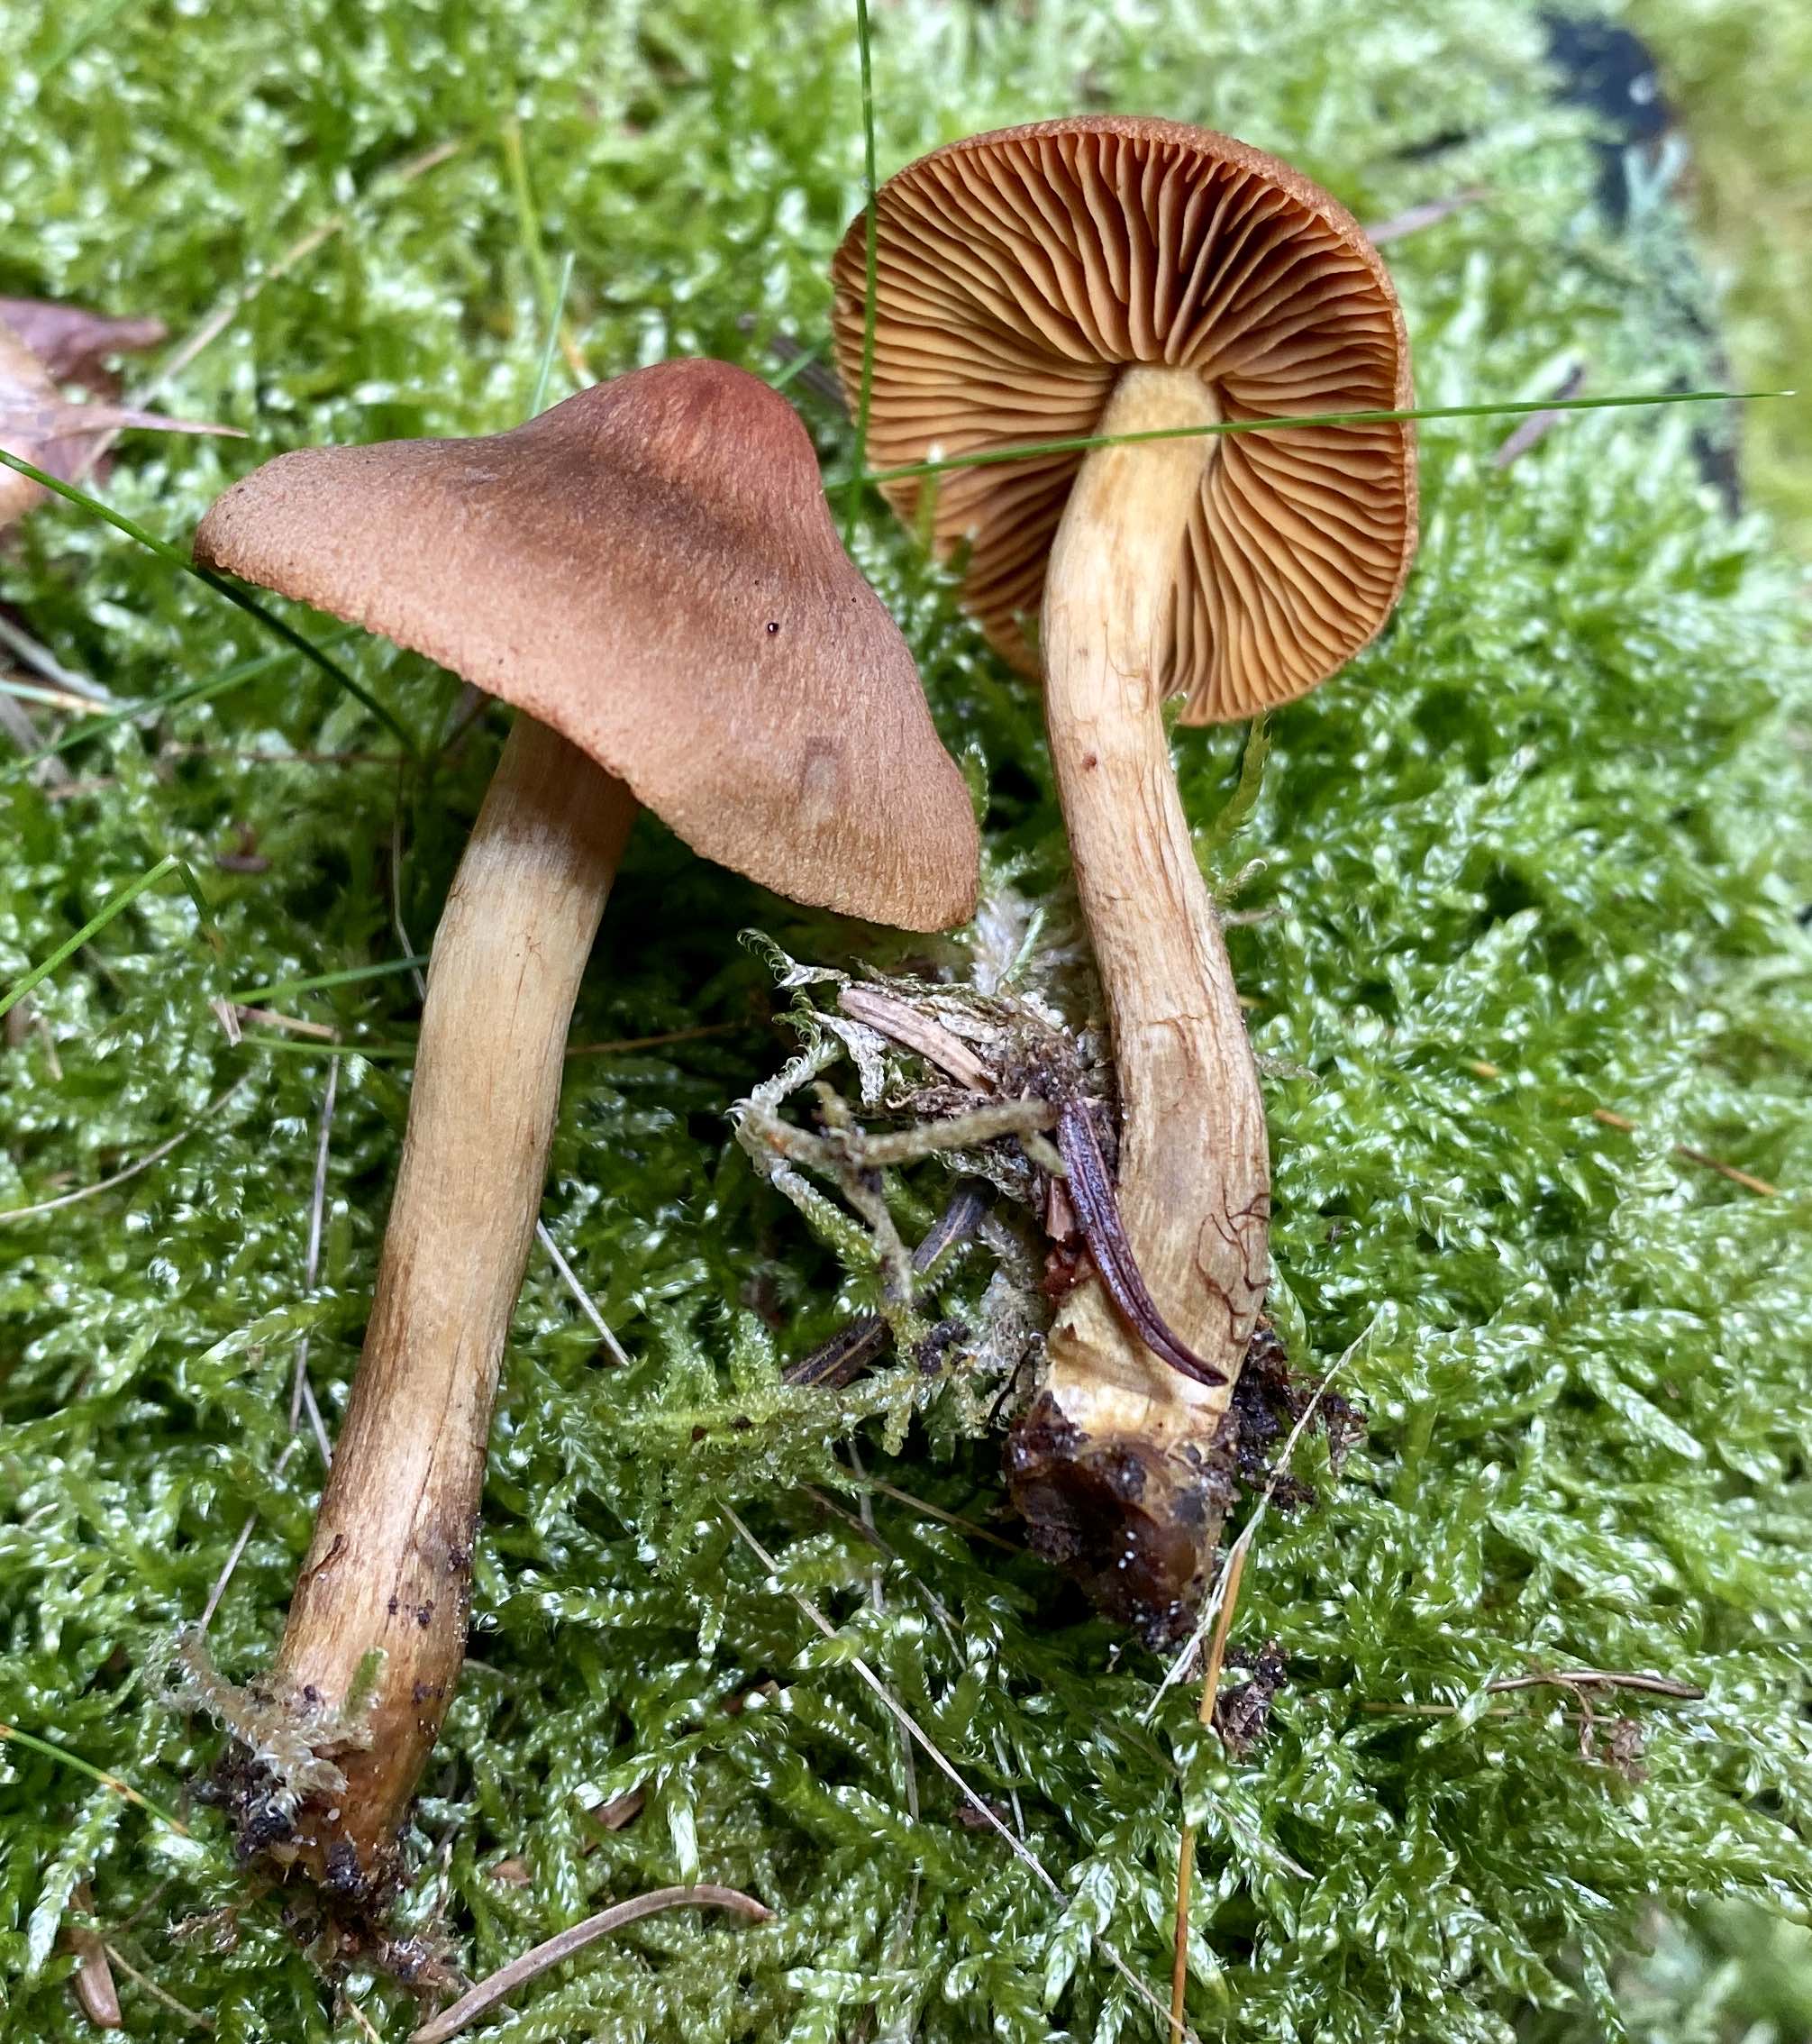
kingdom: Fungi
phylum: Basidiomycota
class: Agaricomycetes
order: Agaricales
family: Cortinariaceae
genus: Cortinarius
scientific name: Cortinarius cinnamomeus
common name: kanel-slørhat
